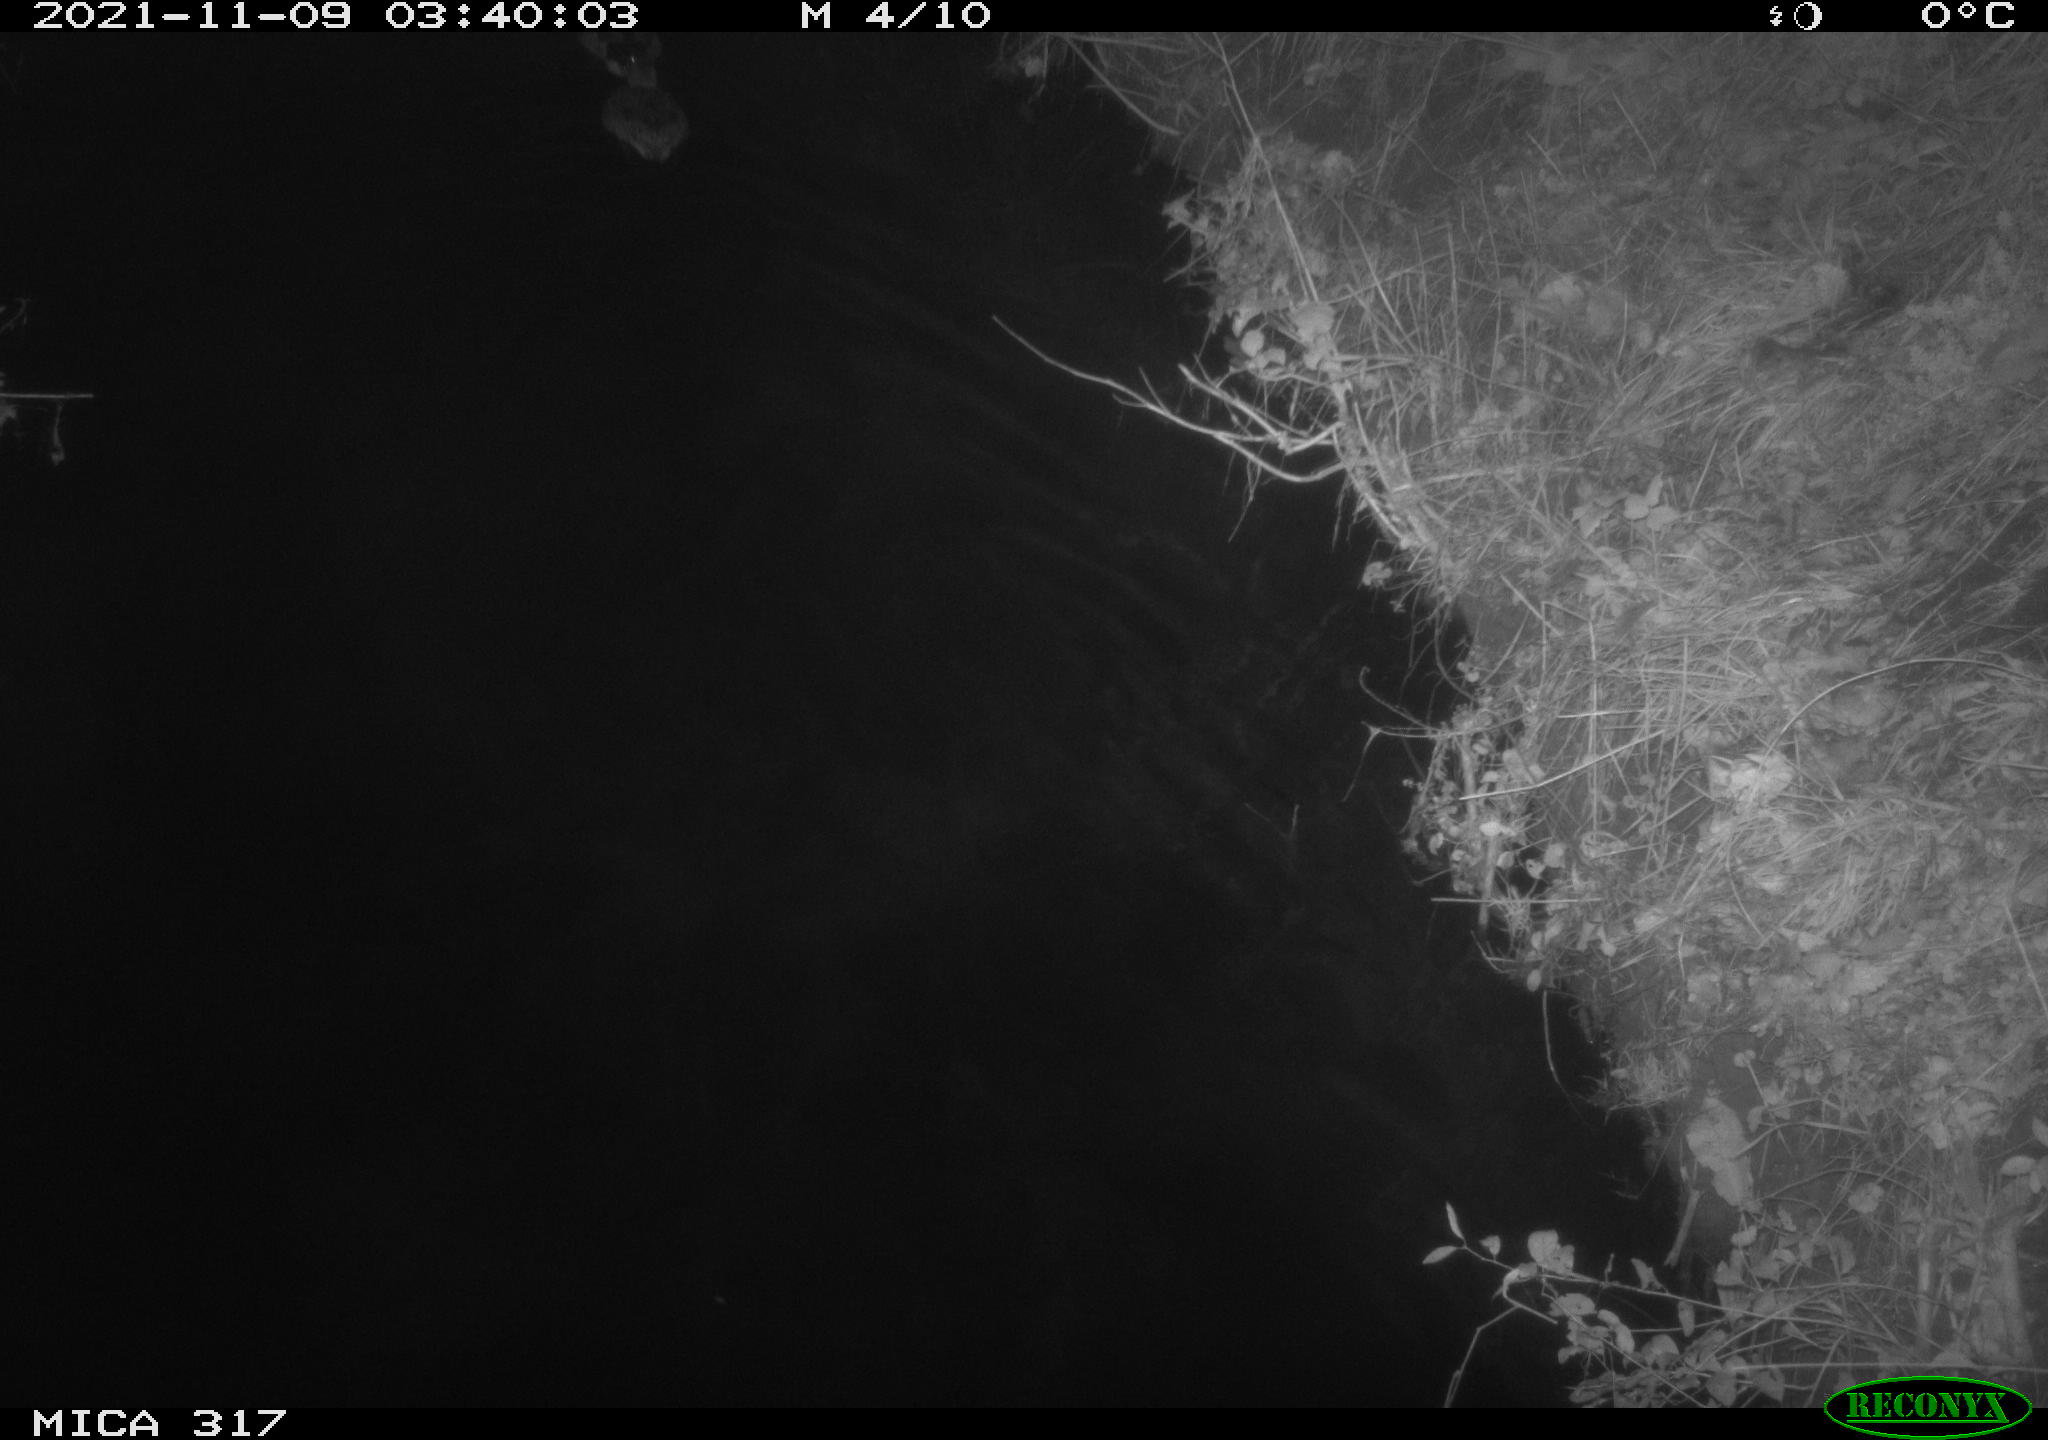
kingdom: Animalia
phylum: Chordata
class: Aves
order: Anseriformes
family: Anatidae
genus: Anas
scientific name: Anas platyrhynchos
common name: Mallard
